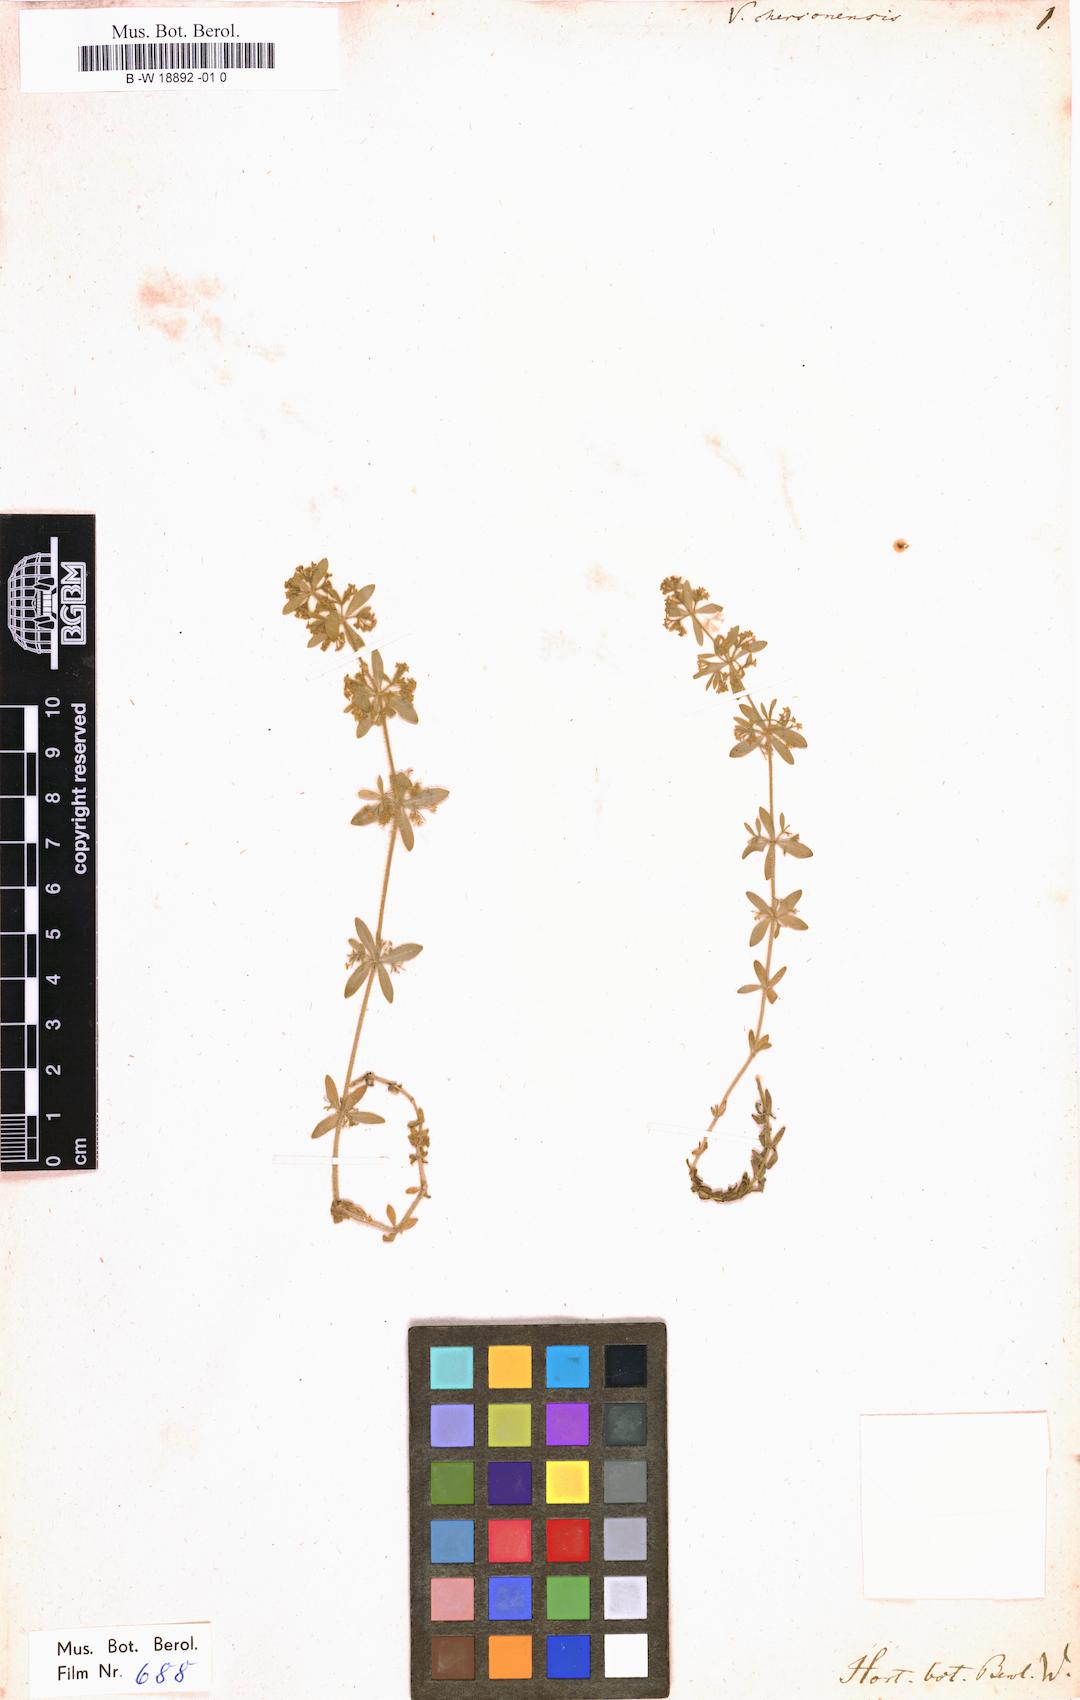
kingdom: Plantae
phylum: Tracheophyta
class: Magnoliopsida
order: Gentianales
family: Rubiaceae
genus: Cruciata
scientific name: Cruciata taurica
